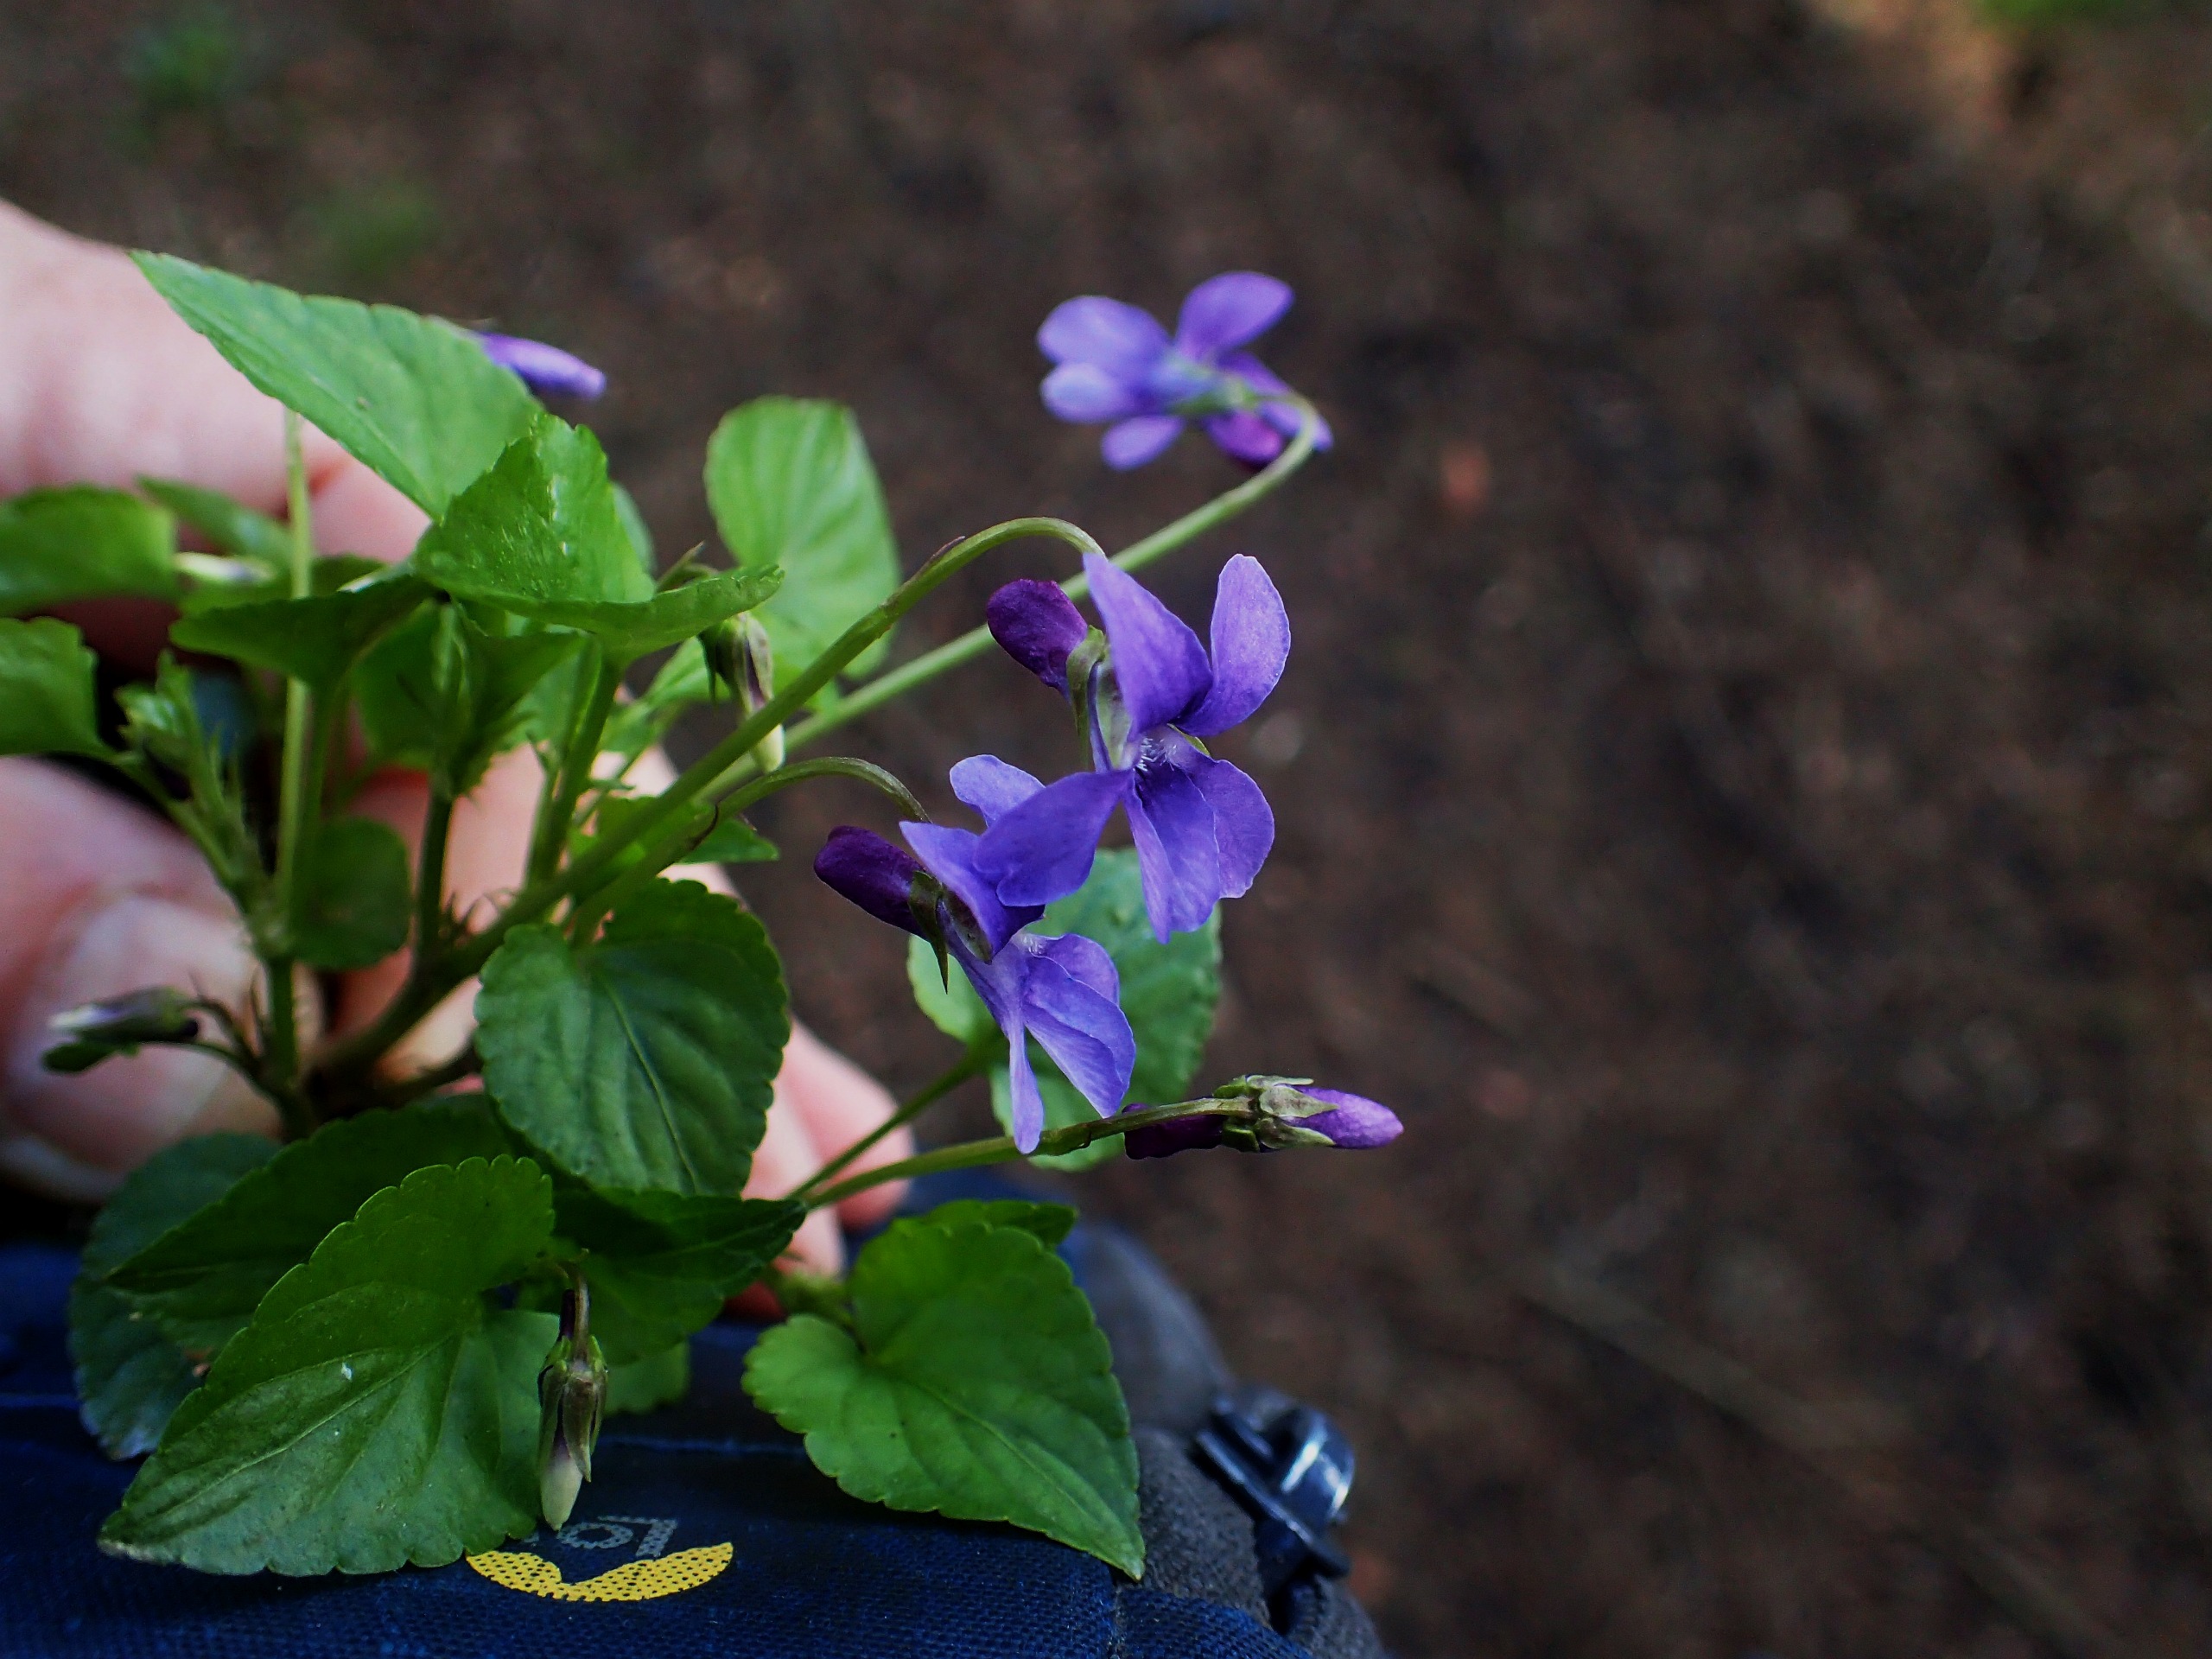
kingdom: Plantae
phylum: Tracheophyta
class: Magnoliopsida
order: Malpighiales
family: Violaceae
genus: Viola
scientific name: Viola reichenbachiana
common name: Skov-viol
